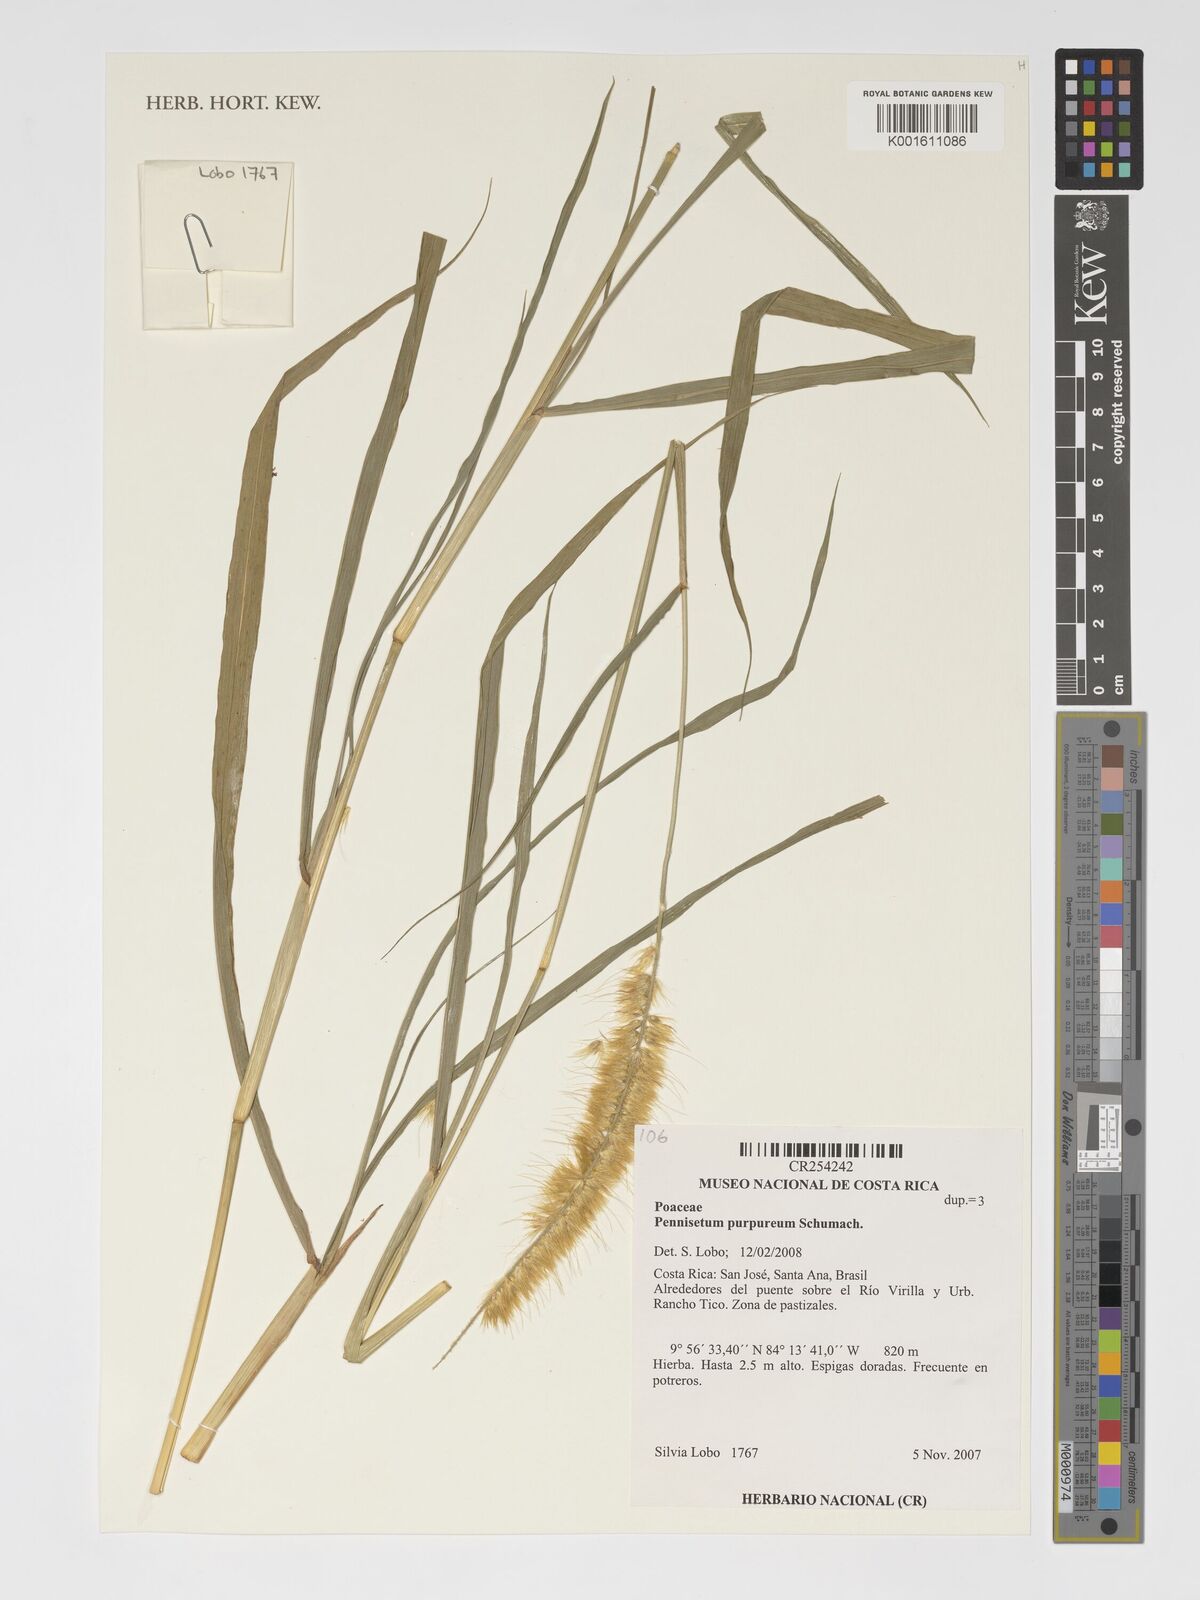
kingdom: Plantae
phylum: Tracheophyta
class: Liliopsida
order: Poales
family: Poaceae
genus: Cenchrus
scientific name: Cenchrus purpureus
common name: Elephant grass
